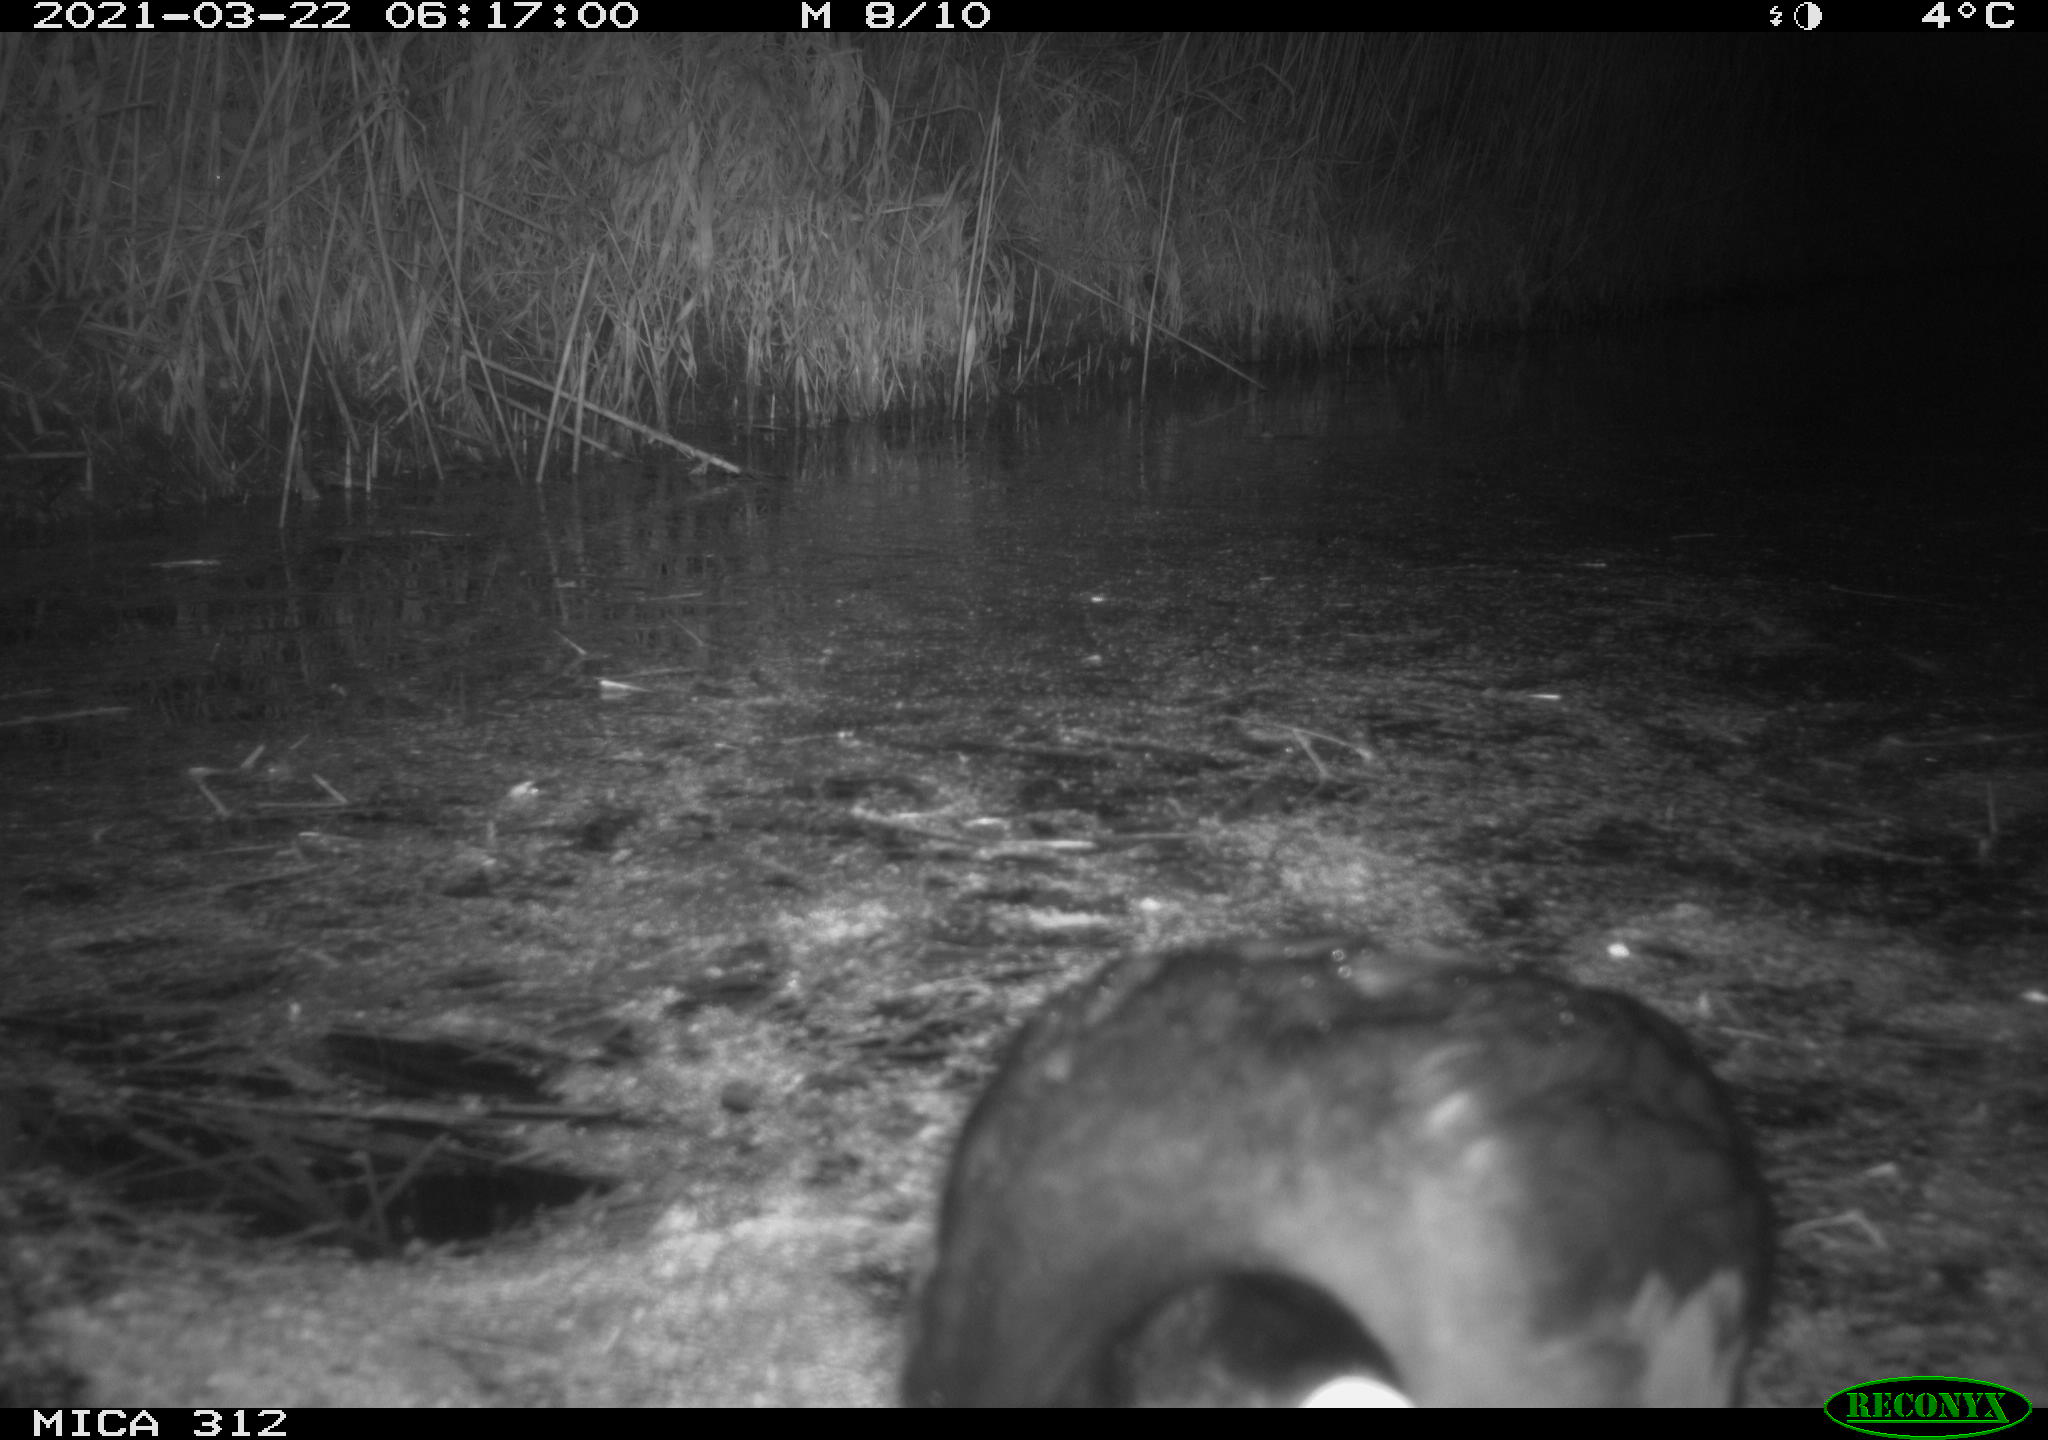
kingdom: Animalia
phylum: Chordata
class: Aves
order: Gruiformes
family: Rallidae
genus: Fulica
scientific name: Fulica atra
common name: Eurasian coot
